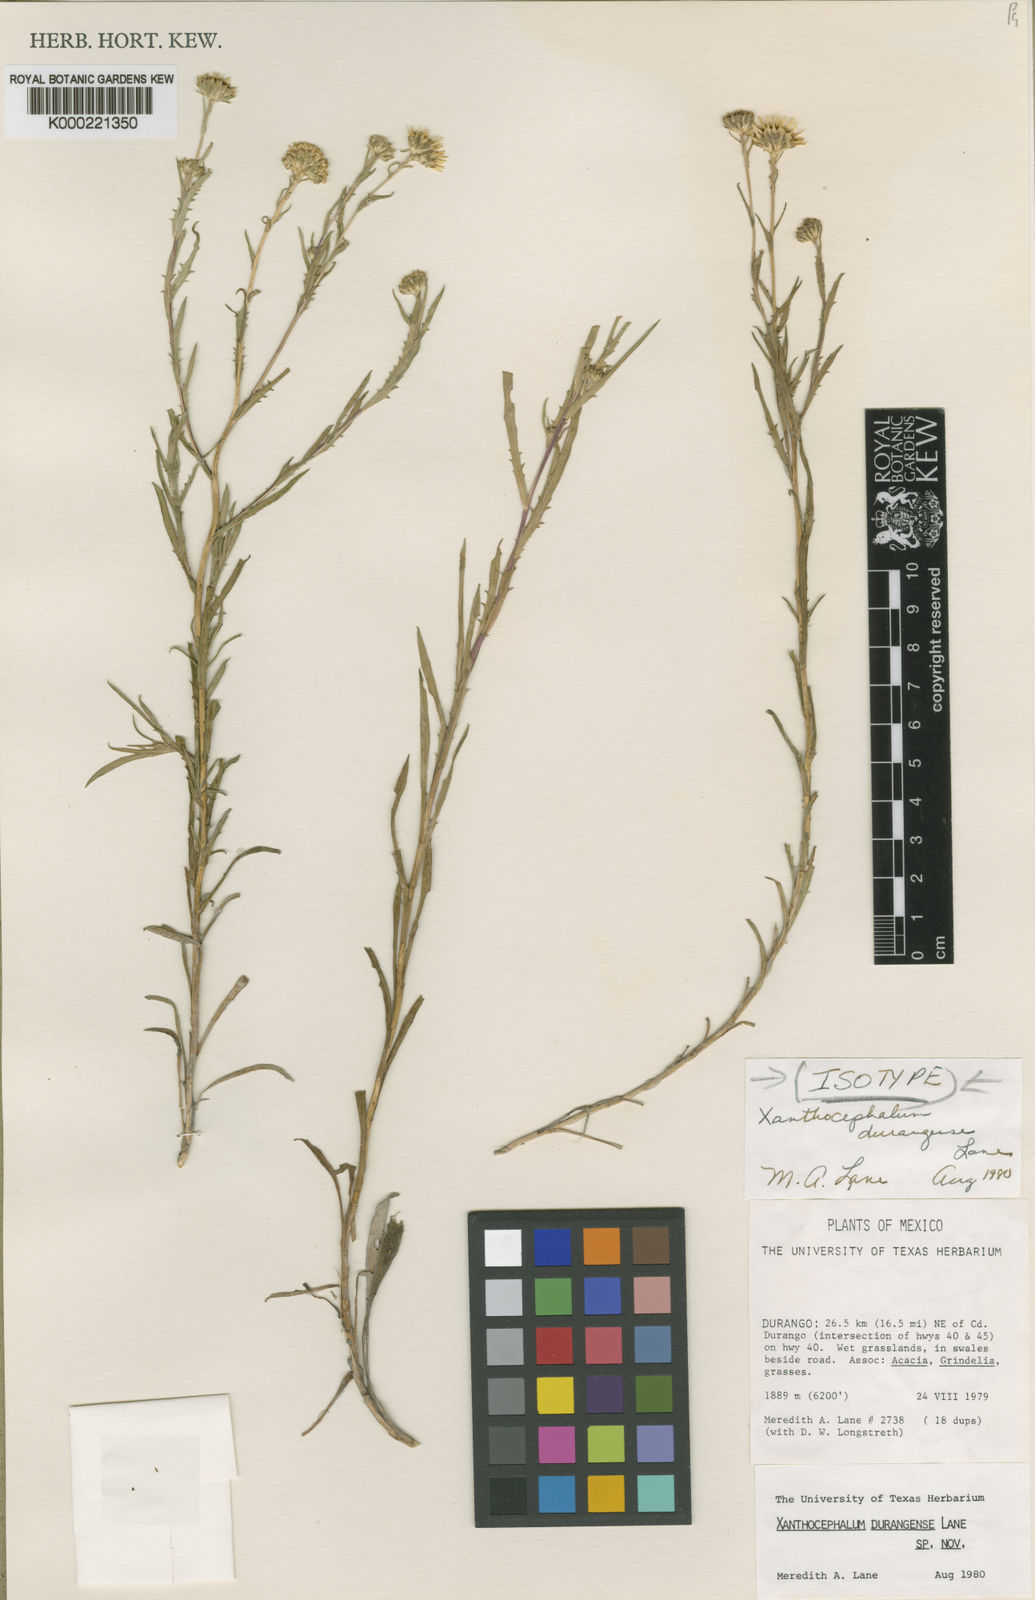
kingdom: Plantae
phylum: Tracheophyta
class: Magnoliopsida
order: Asterales
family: Asteraceae
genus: Xanthocephalum
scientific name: Xanthocephalum durangense
